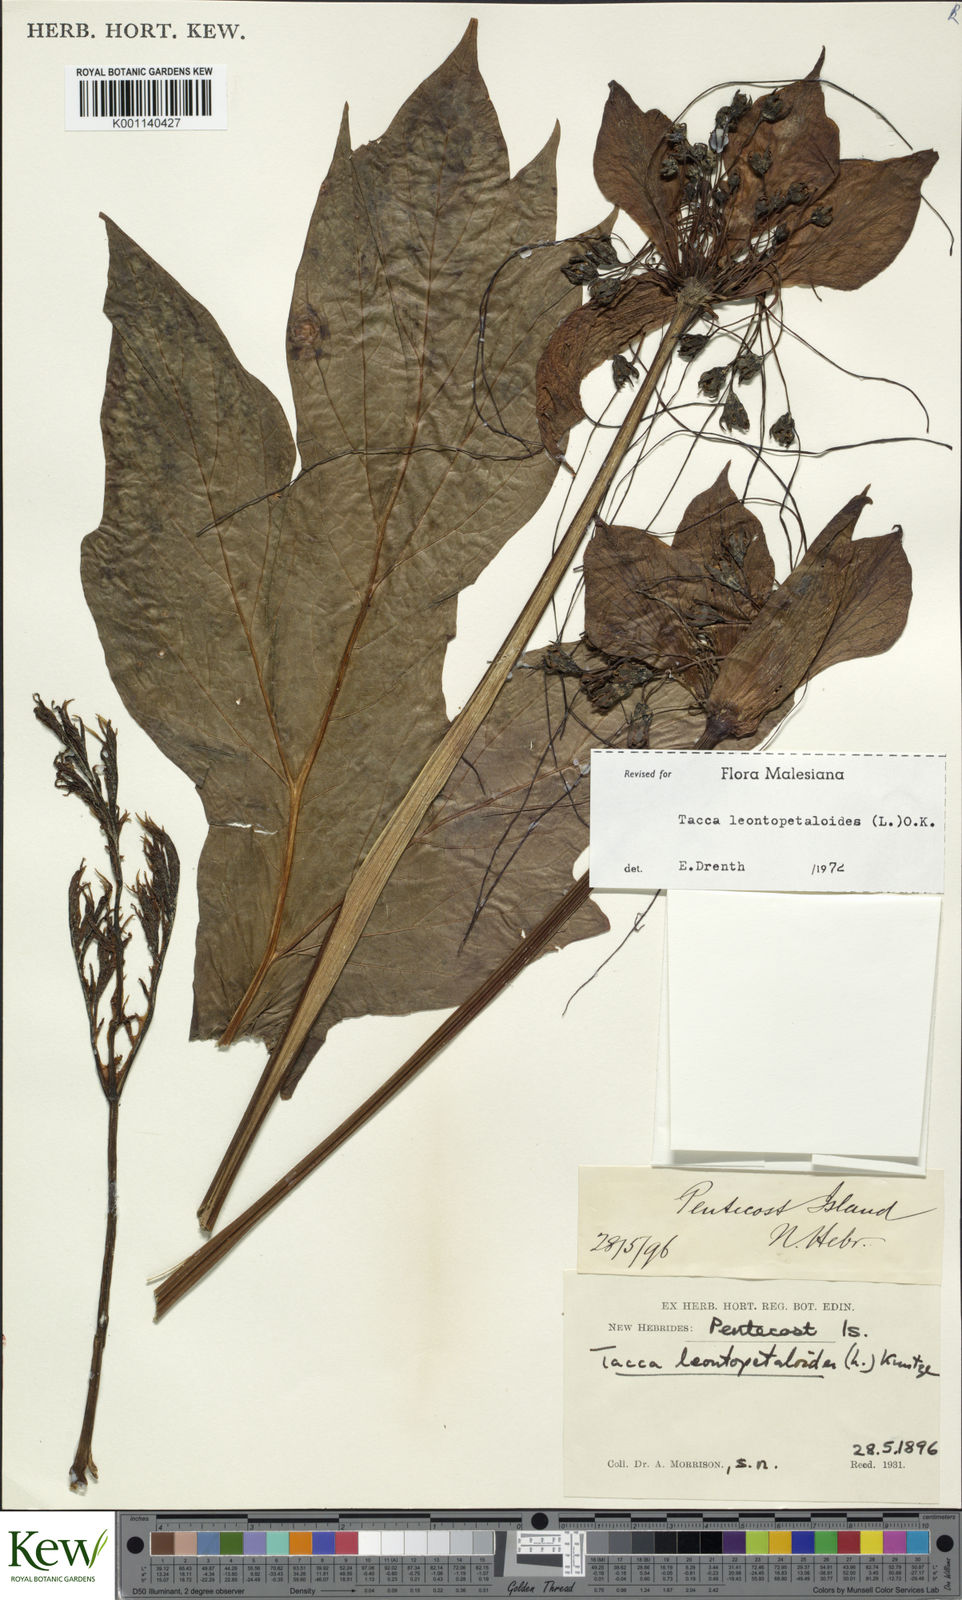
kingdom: Plantae
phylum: Tracheophyta
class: Liliopsida
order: Dioscoreales
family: Dioscoreaceae
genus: Tacca
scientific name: Tacca leontopetaloides
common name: Arrowroot
